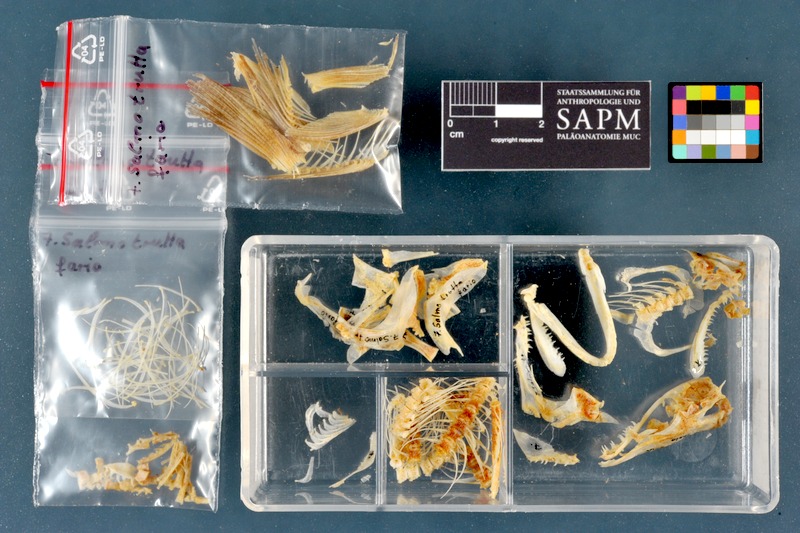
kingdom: Animalia
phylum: Chordata
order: Salmoniformes
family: Salmonidae
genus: Salmo
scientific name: Salmo trutta
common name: Brown trout
